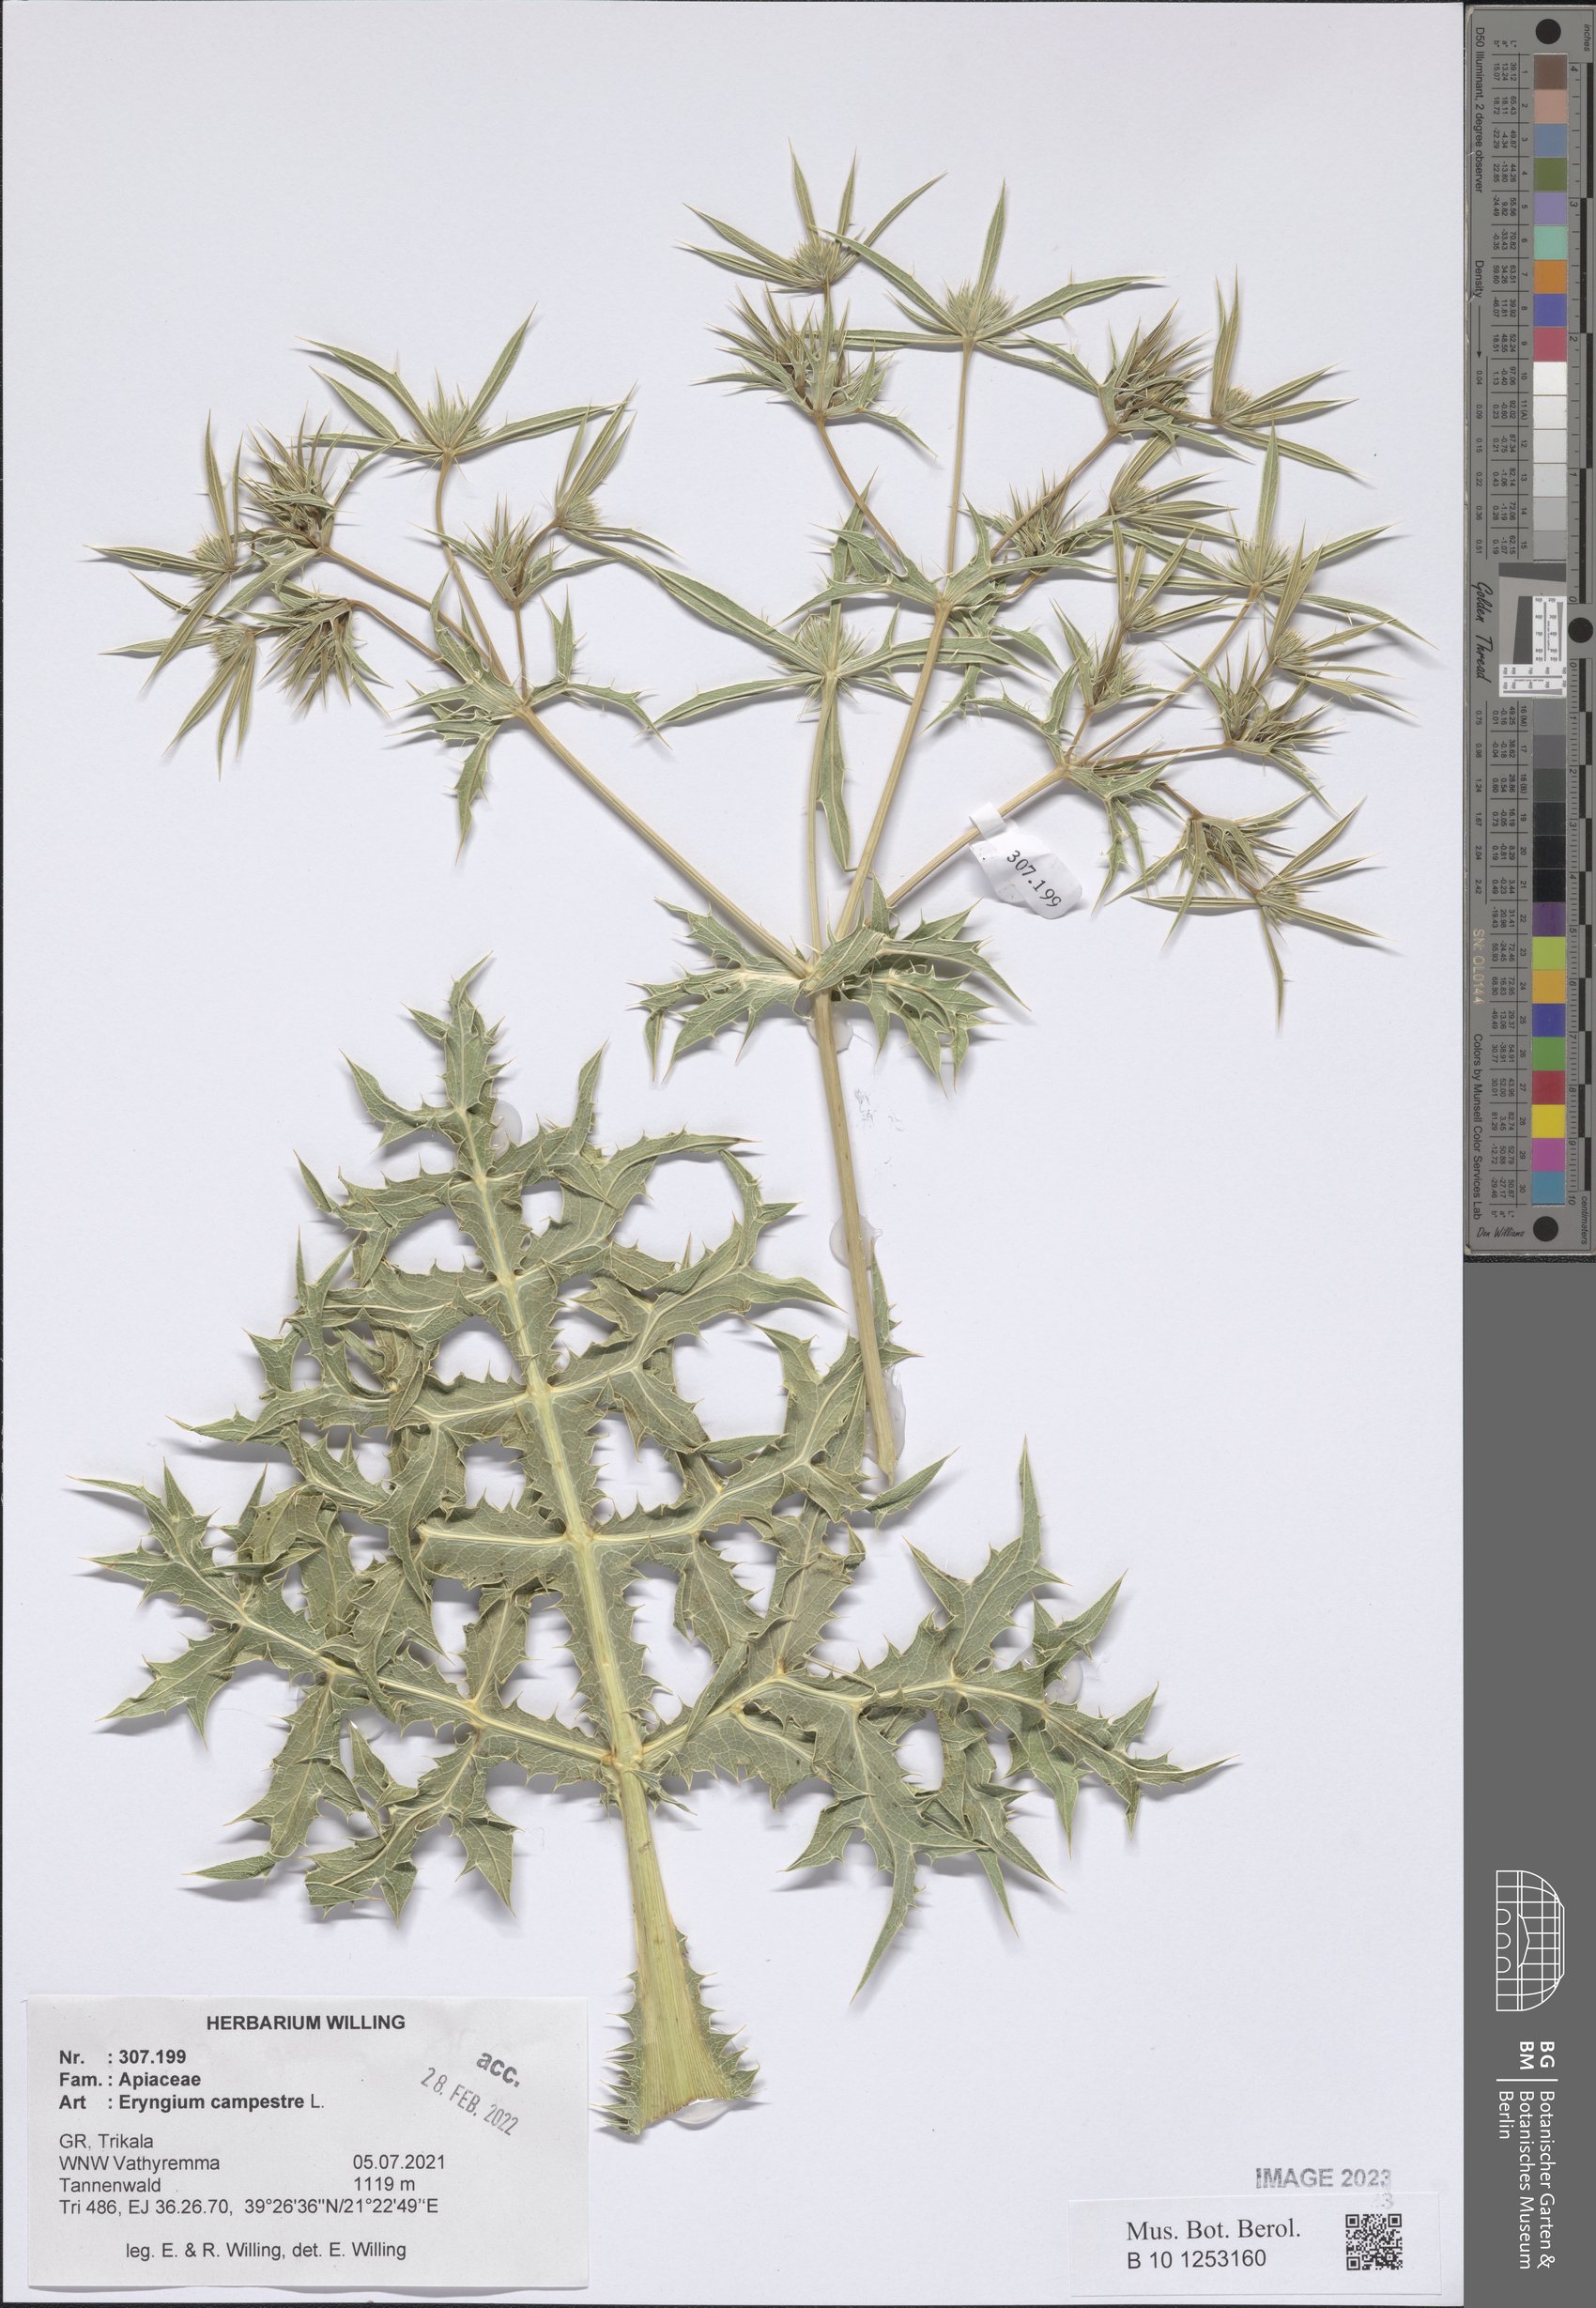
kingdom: Plantae
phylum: Tracheophyta
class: Magnoliopsida
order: Apiales
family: Apiaceae
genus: Eryngium
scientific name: Eryngium campestre
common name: Field eryngo
